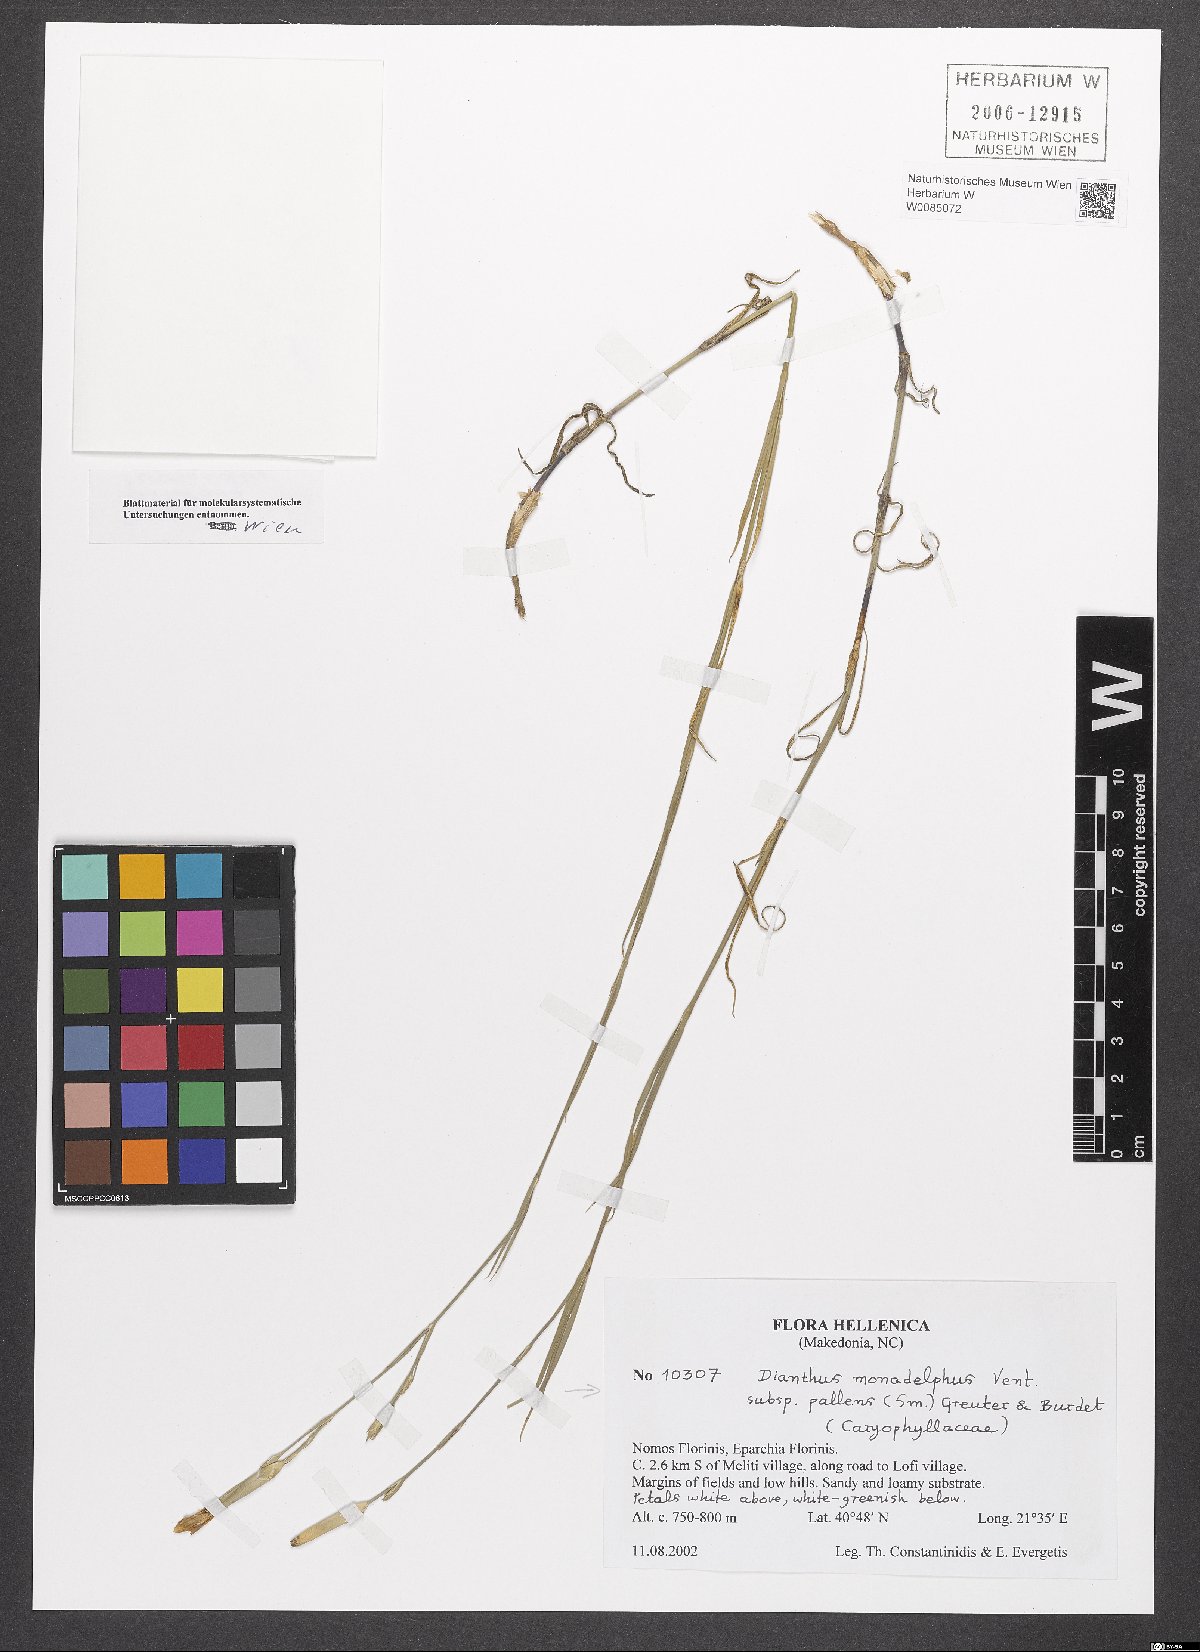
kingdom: Plantae
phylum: Tracheophyta
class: Magnoliopsida
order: Caryophyllales
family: Caryophyllaceae
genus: Dianthus
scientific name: Dianthus monadelphus
